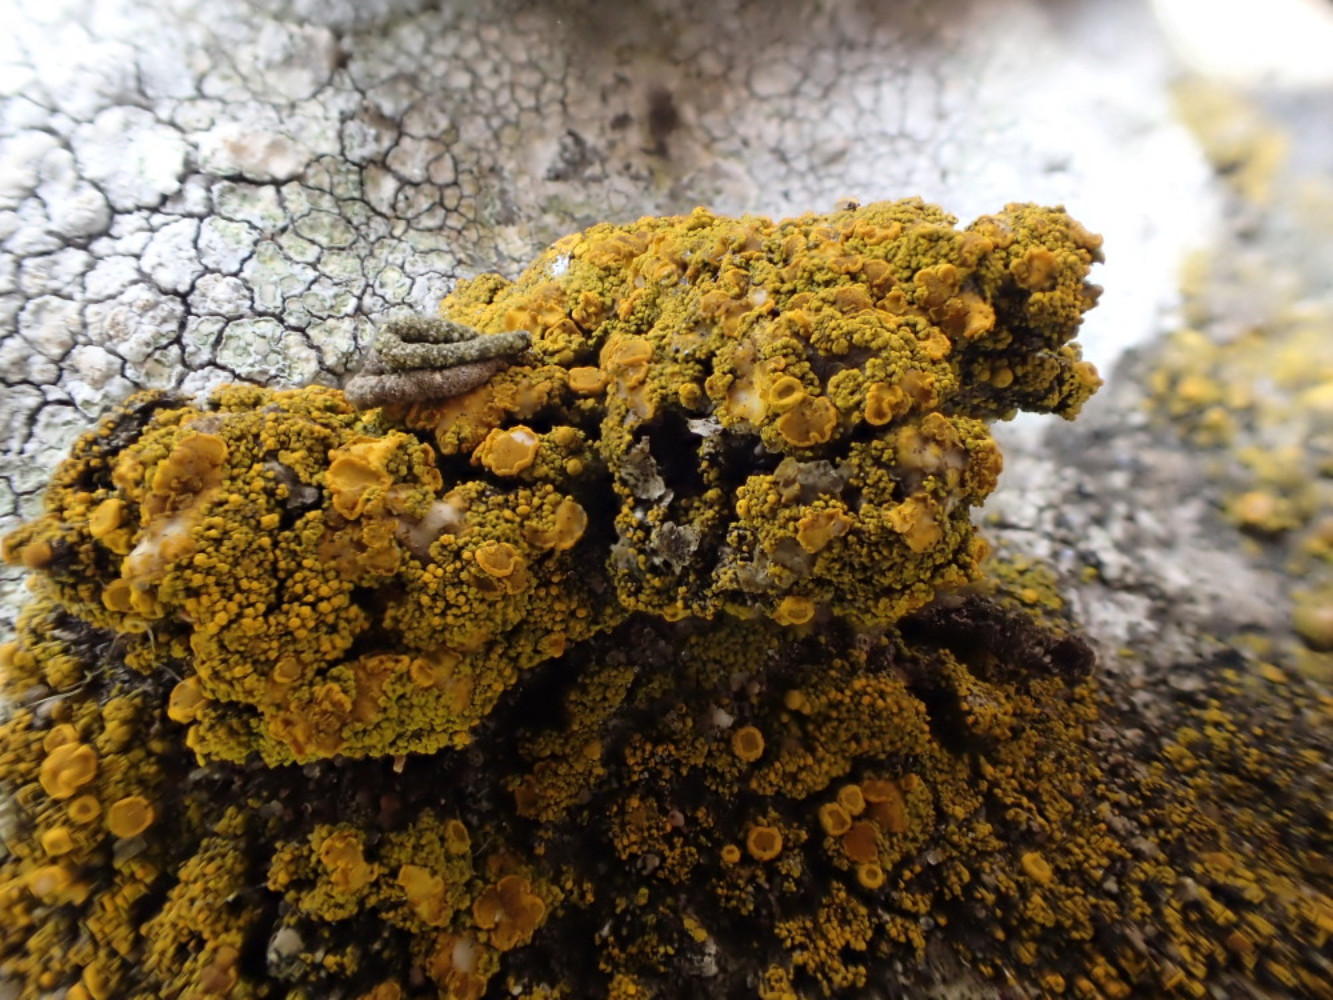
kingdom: Fungi
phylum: Ascomycota
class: Candelariomycetes
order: Candelariales
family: Candelariaceae
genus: Candelariella
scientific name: Candelariella vitellina
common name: almindelig æggeblommelav
